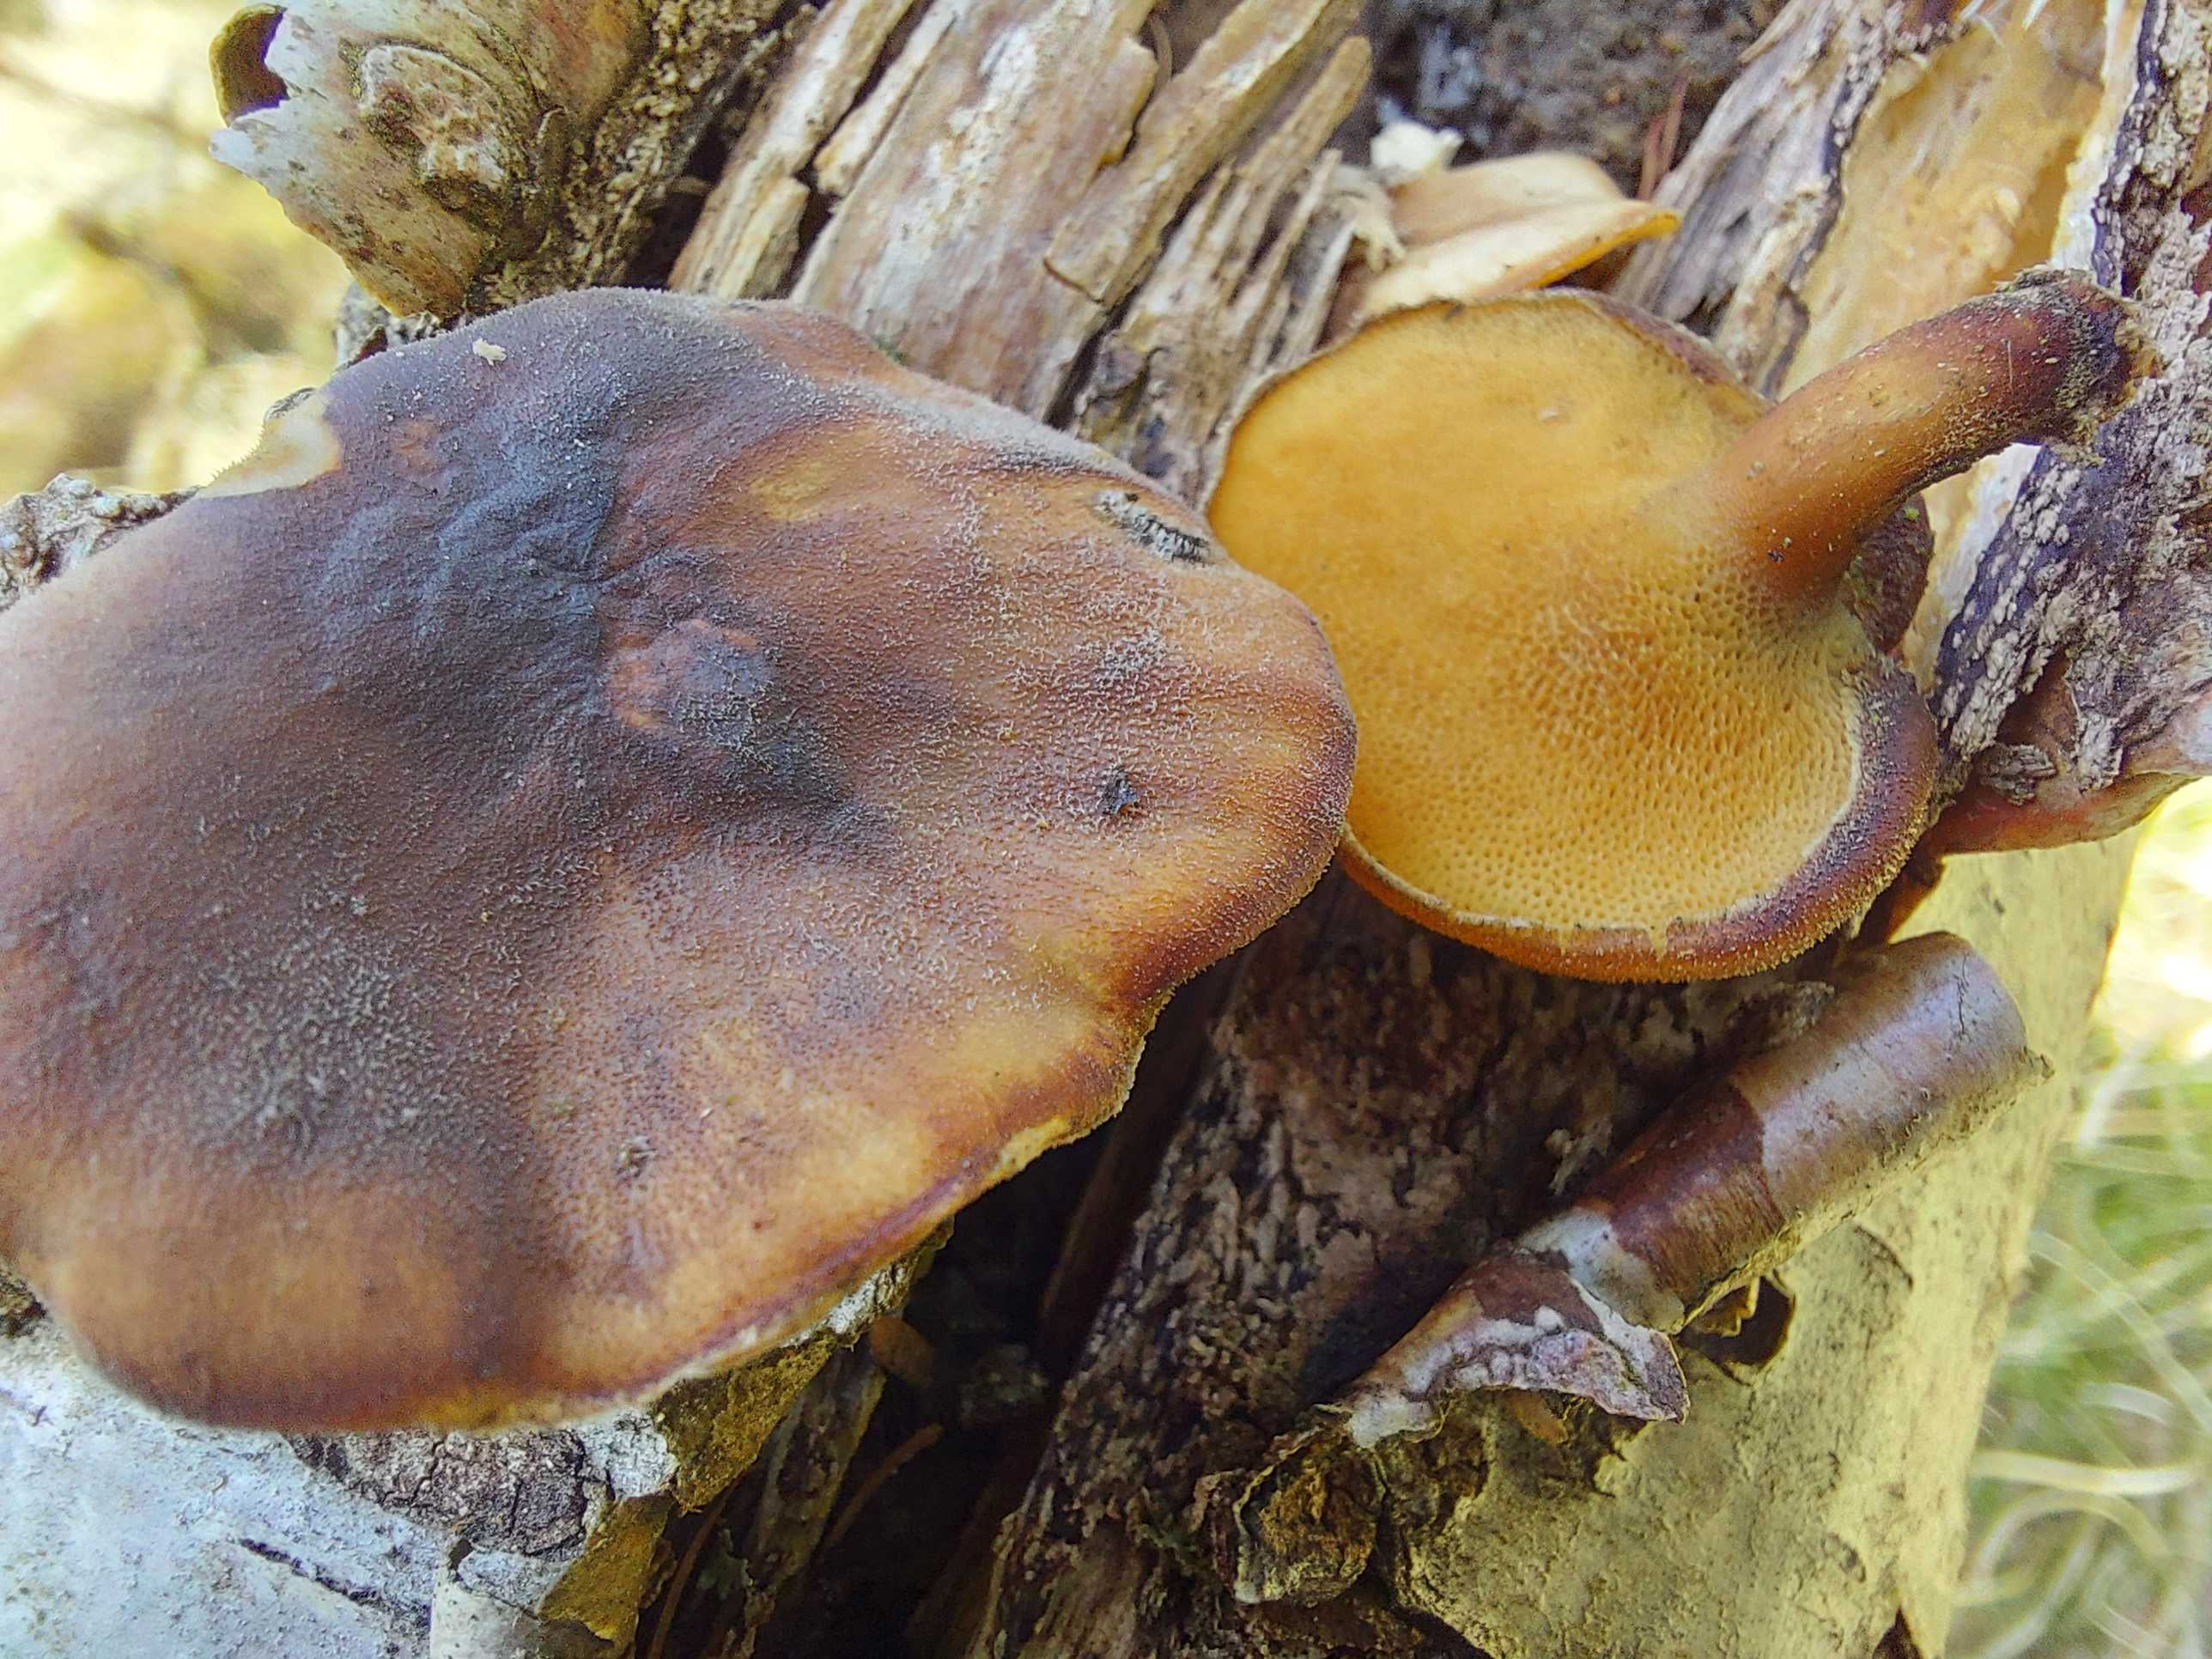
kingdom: Fungi
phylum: Basidiomycota
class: Agaricomycetes
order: Polyporales
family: Polyporaceae
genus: Lentinus
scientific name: Lentinus brumalis
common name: vinter-stilkporesvamp
